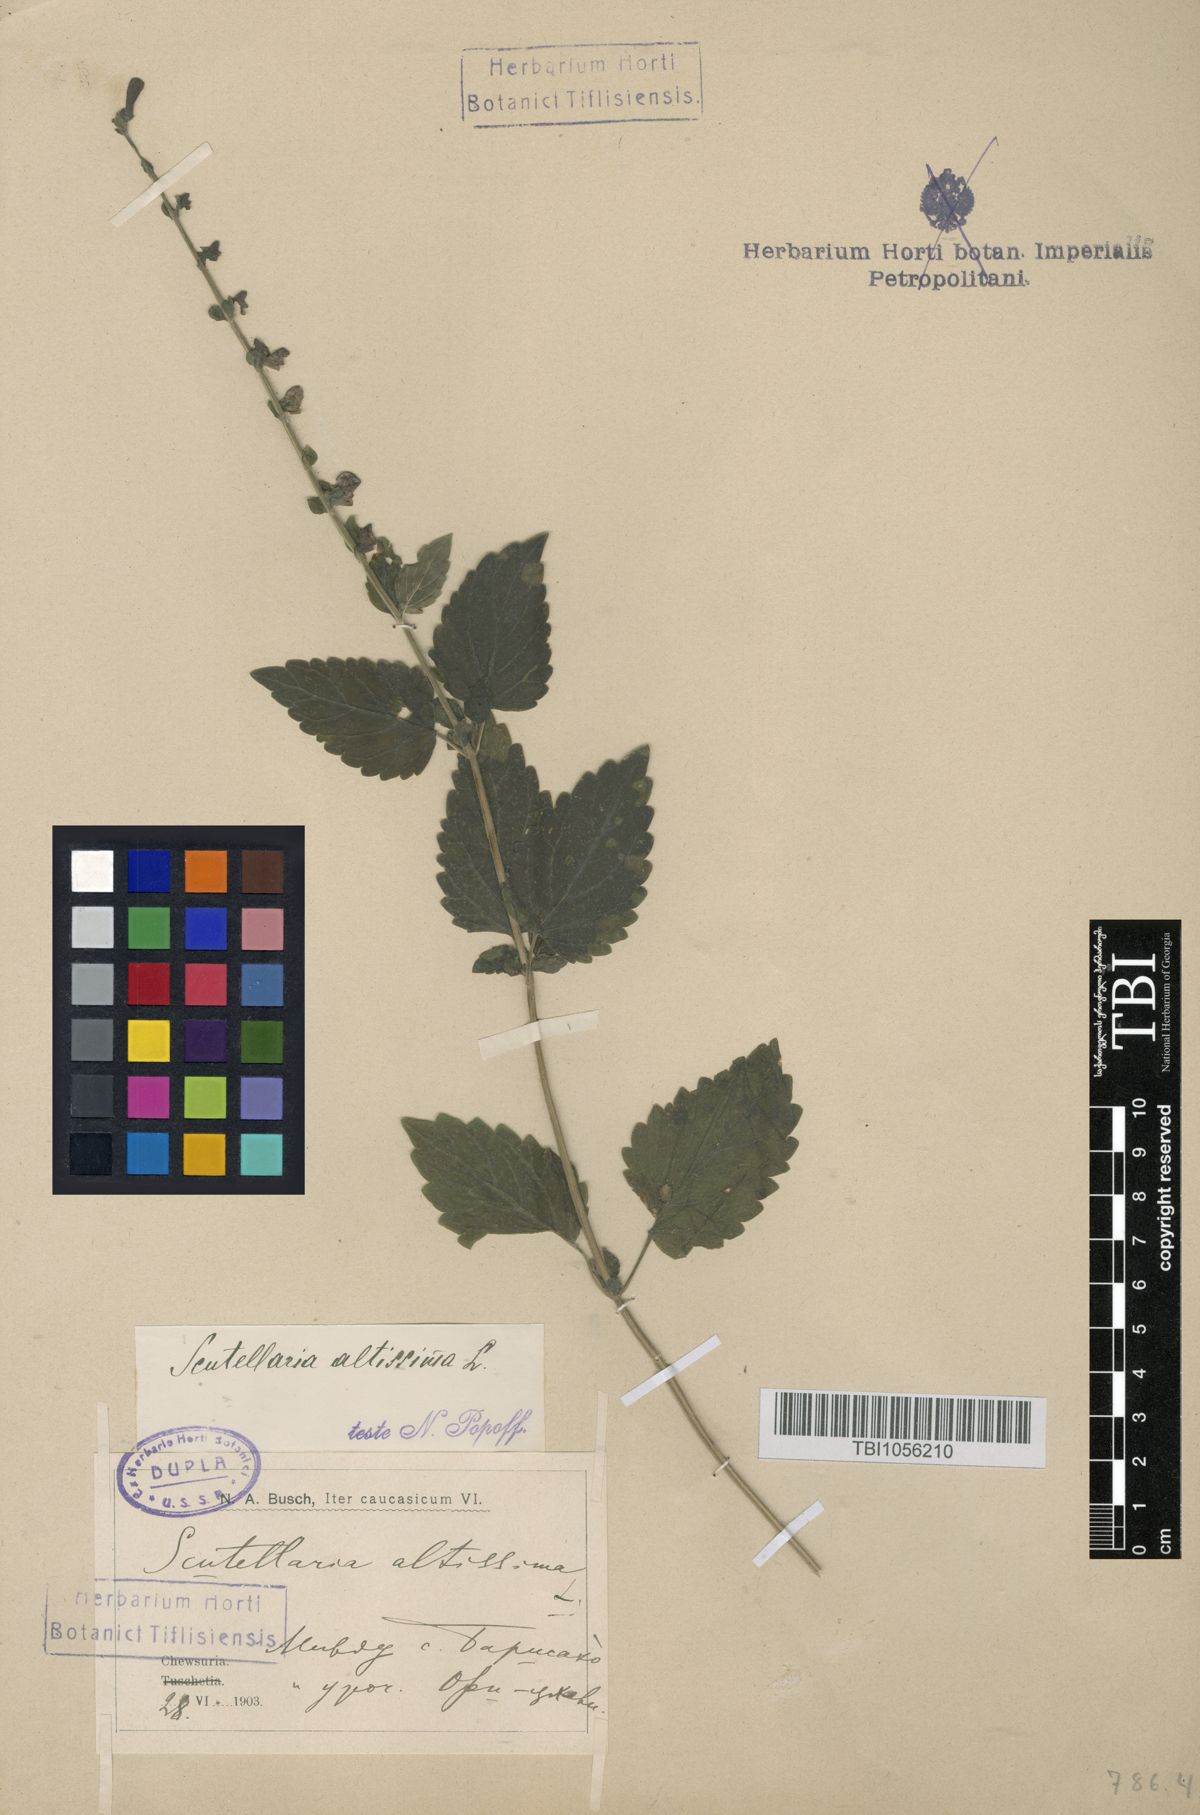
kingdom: Plantae
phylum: Tracheophyta
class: Magnoliopsida
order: Lamiales
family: Lamiaceae
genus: Scutellaria
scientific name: Scutellaria altissima
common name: Somerset skullcap
